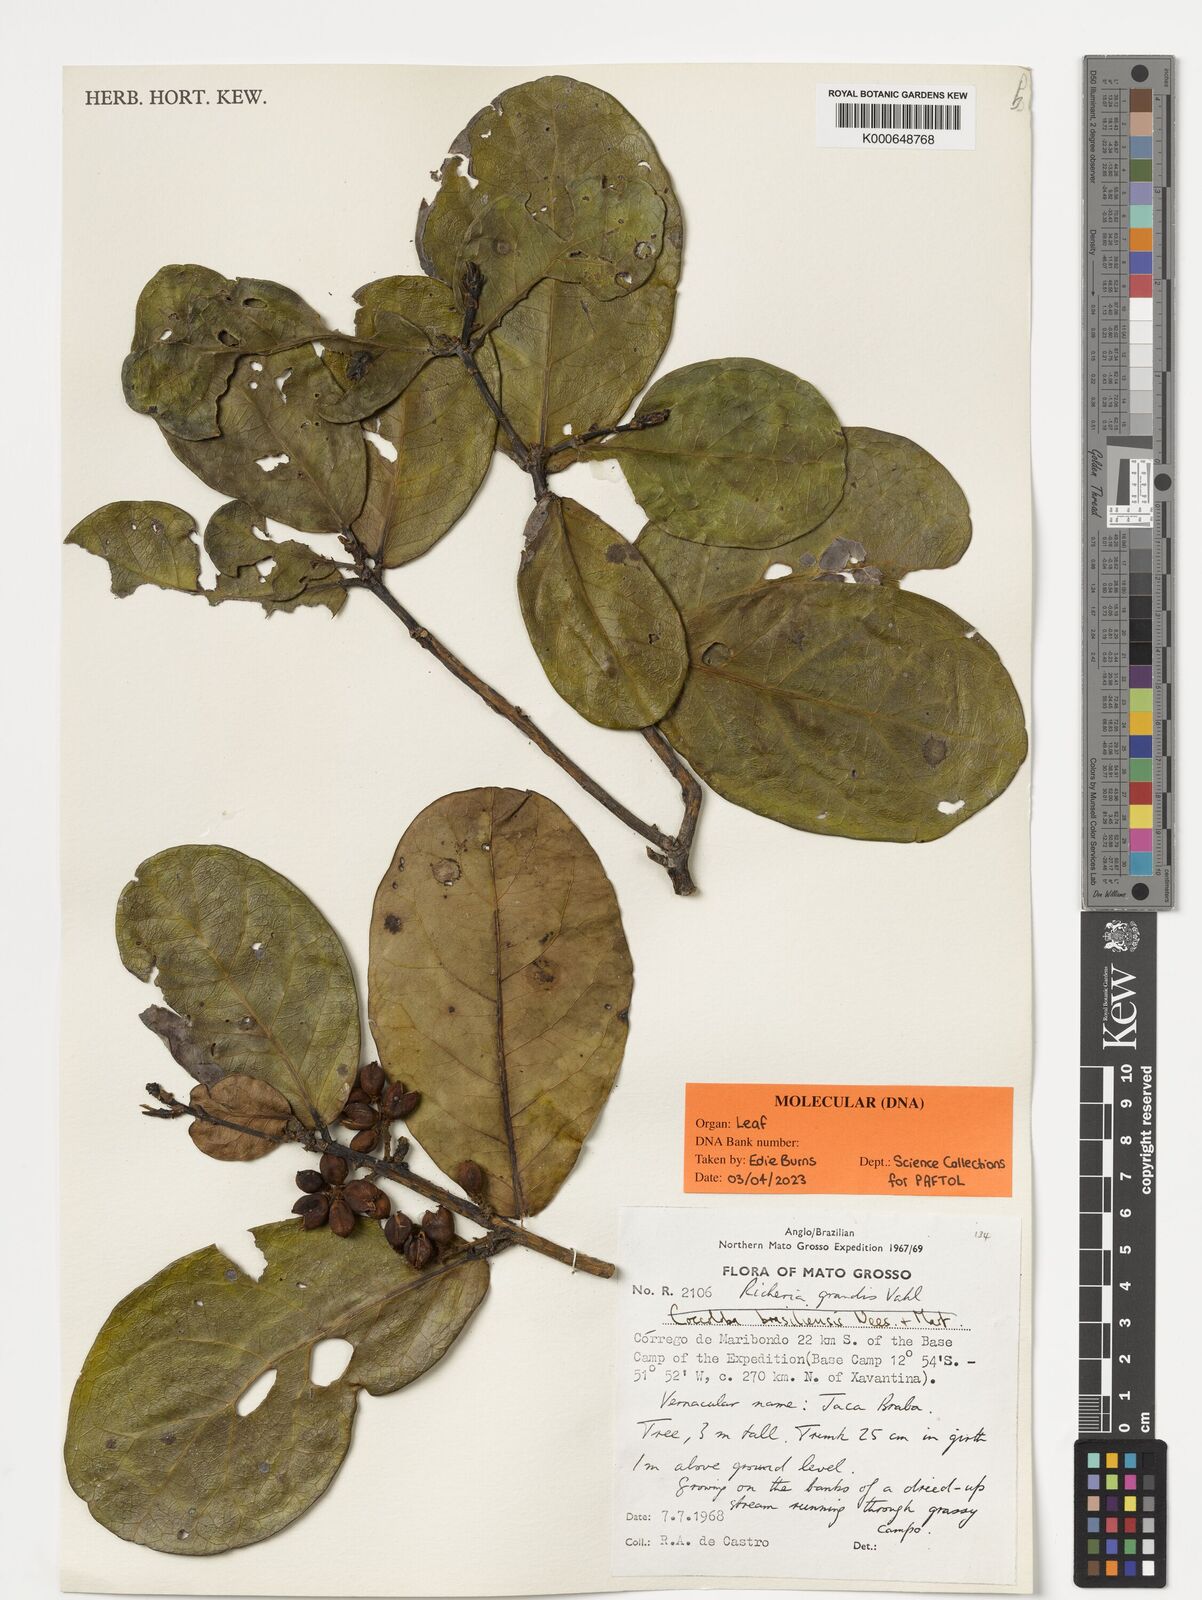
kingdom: Plantae
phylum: Tracheophyta
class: Magnoliopsida
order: Malpighiales
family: Phyllanthaceae
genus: Richeria
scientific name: Richeria grandis
